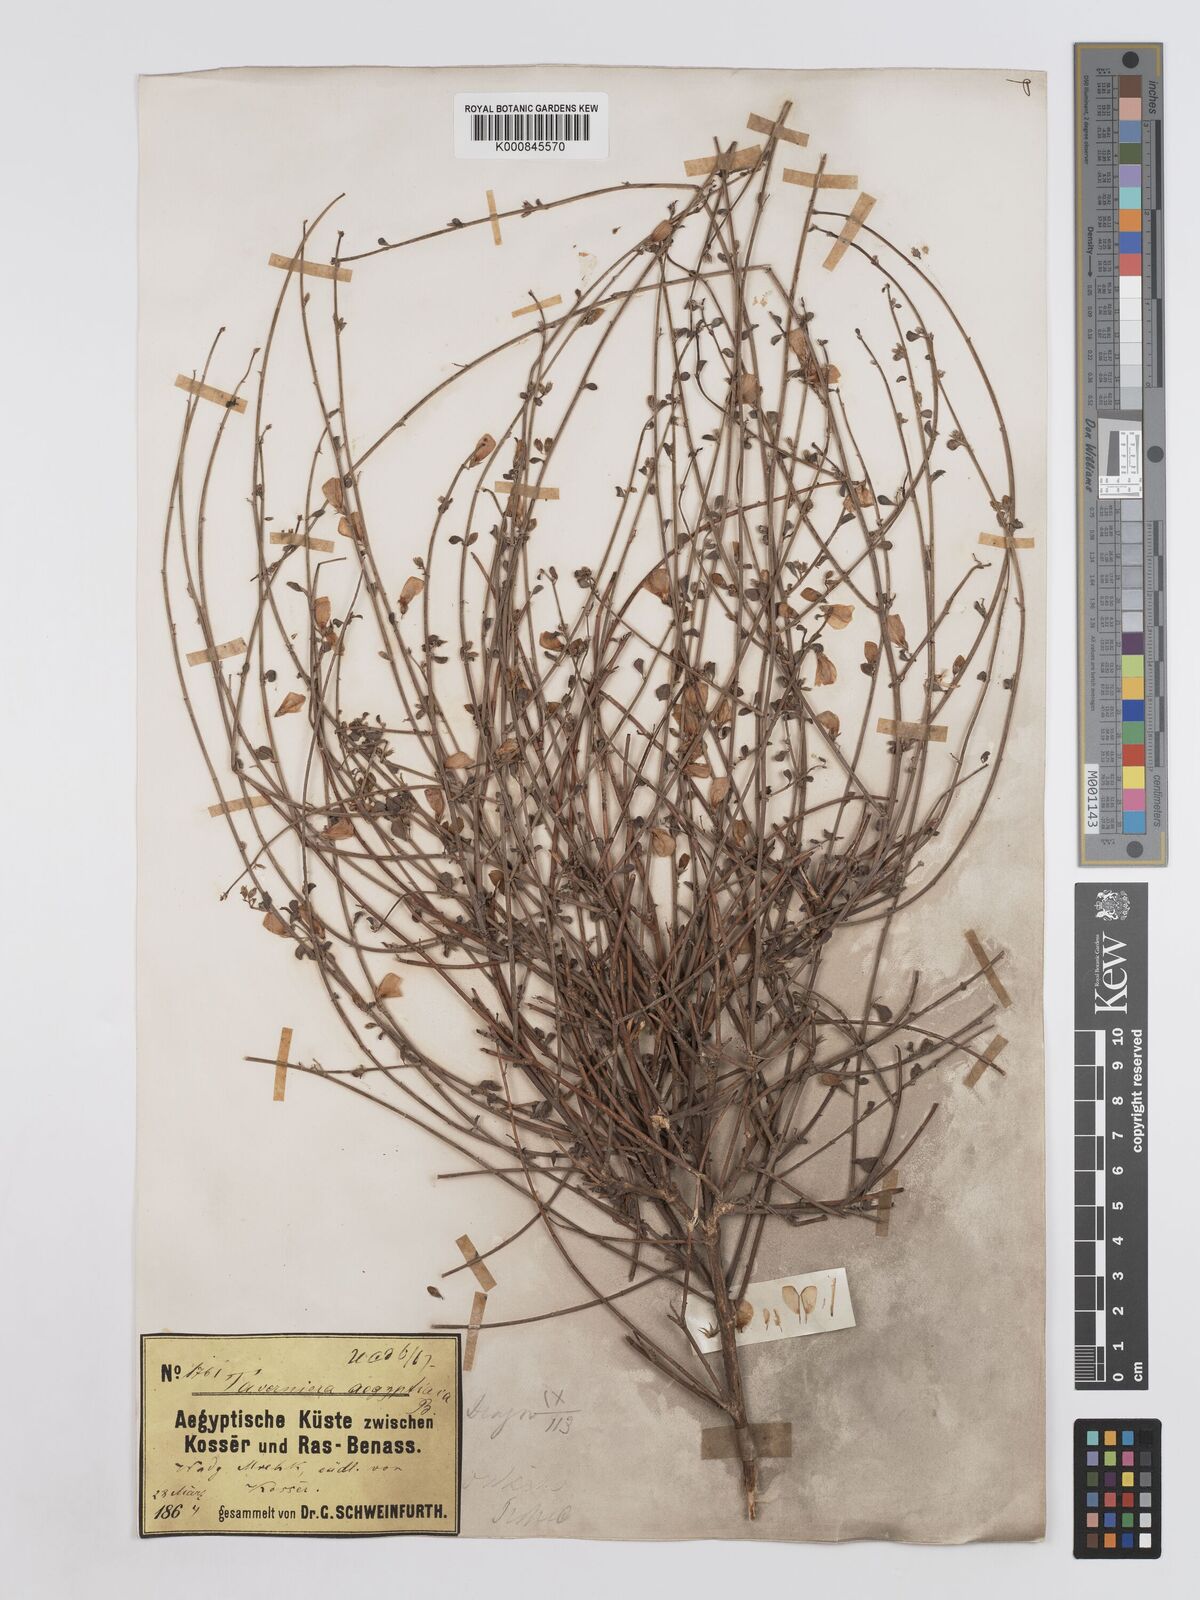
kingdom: Plantae
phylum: Tracheophyta
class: Magnoliopsida
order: Fabales
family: Fabaceae
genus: Taverniera
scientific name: Taverniera aegyptiaca
